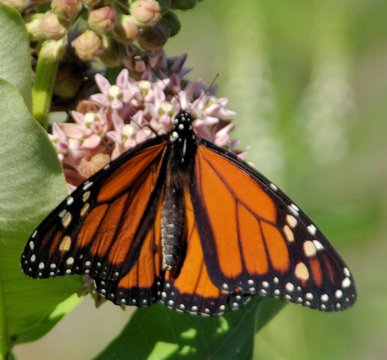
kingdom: Animalia
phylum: Arthropoda
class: Insecta
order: Lepidoptera
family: Nymphalidae
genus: Danaus
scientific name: Danaus plexippus
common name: Monarch
